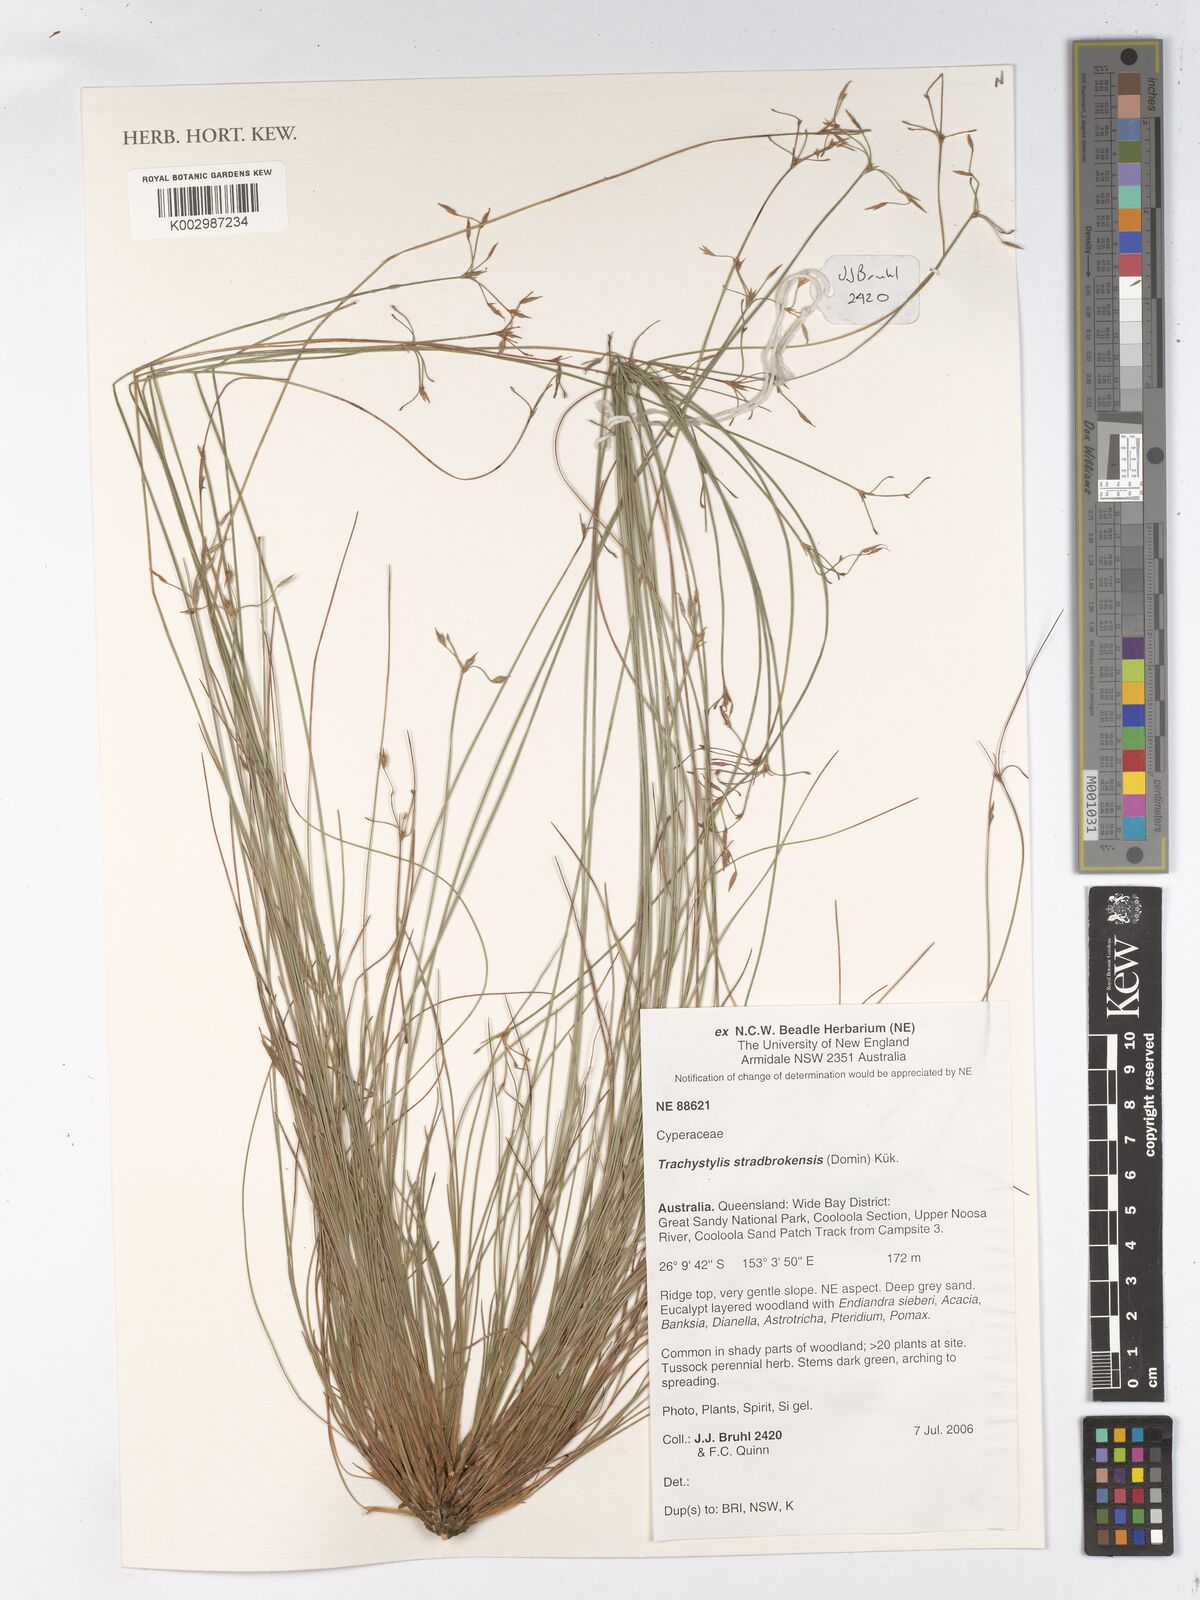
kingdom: Plantae
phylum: Tracheophyta
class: Liliopsida
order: Poales
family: Cyperaceae
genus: Trachystylis
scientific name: Trachystylis stradbrokensis
